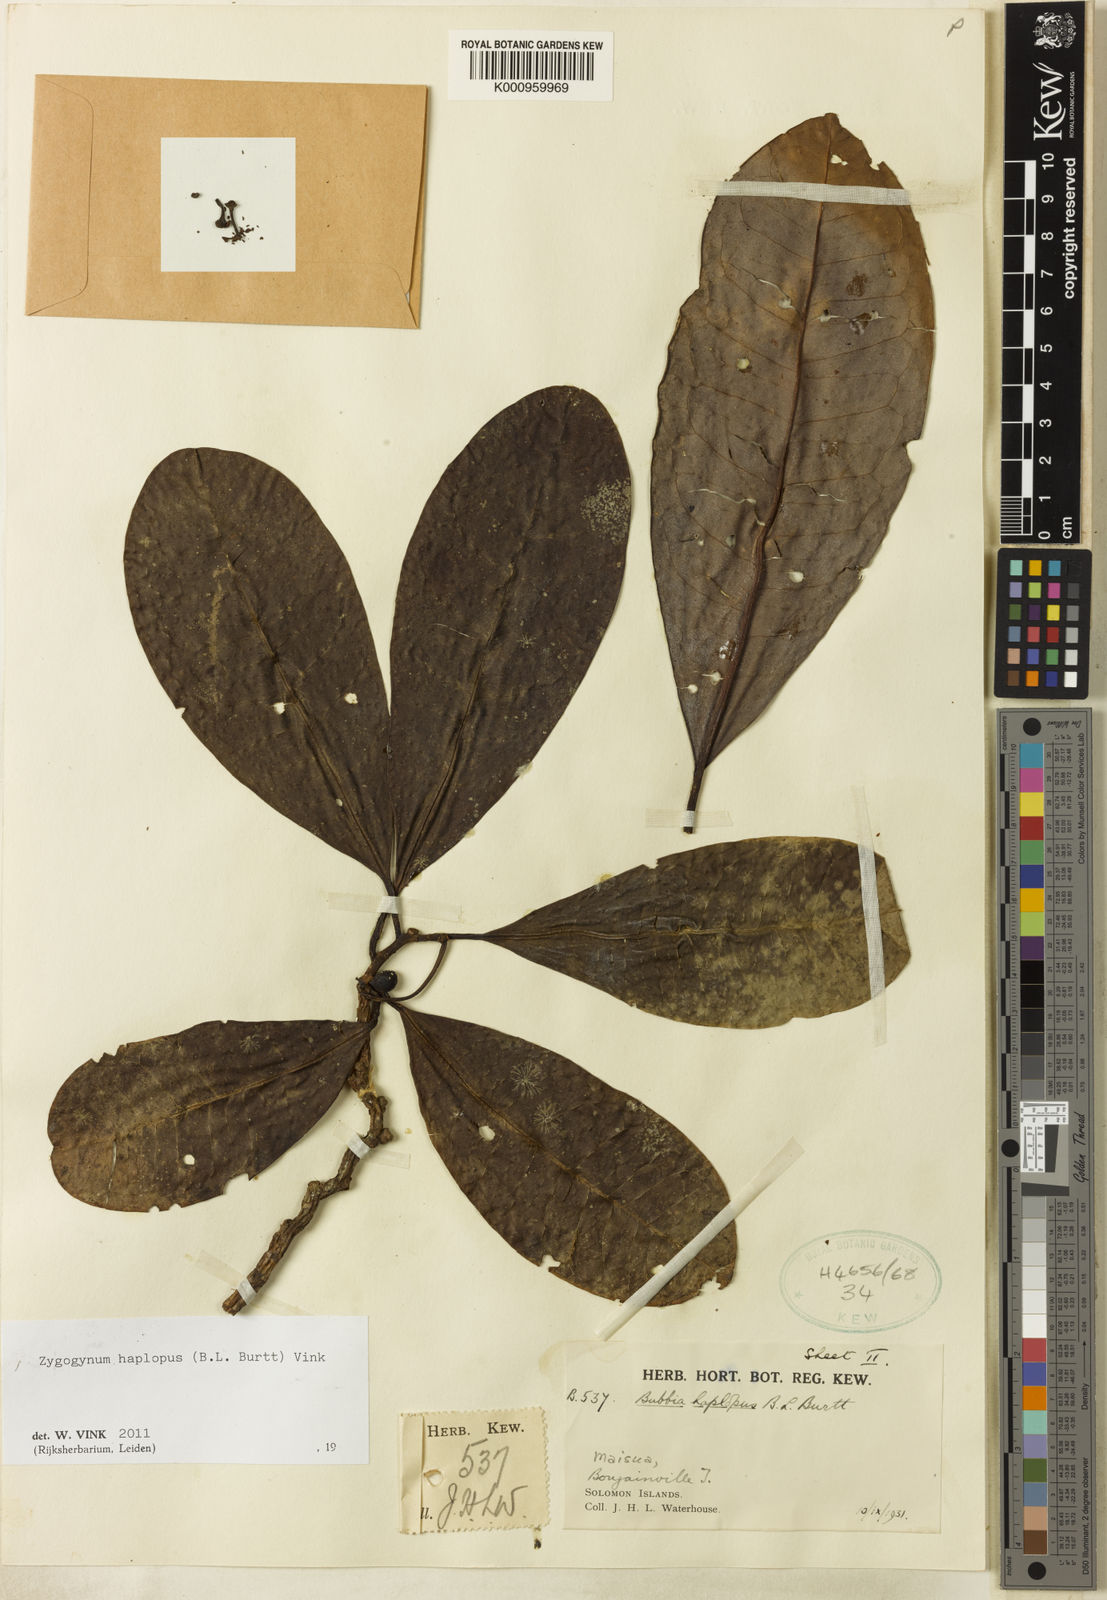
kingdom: Plantae
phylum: Tracheophyta
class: Magnoliopsida
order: Canellales
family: Winteraceae
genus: Zygogynum
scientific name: Zygogynum haplopus
